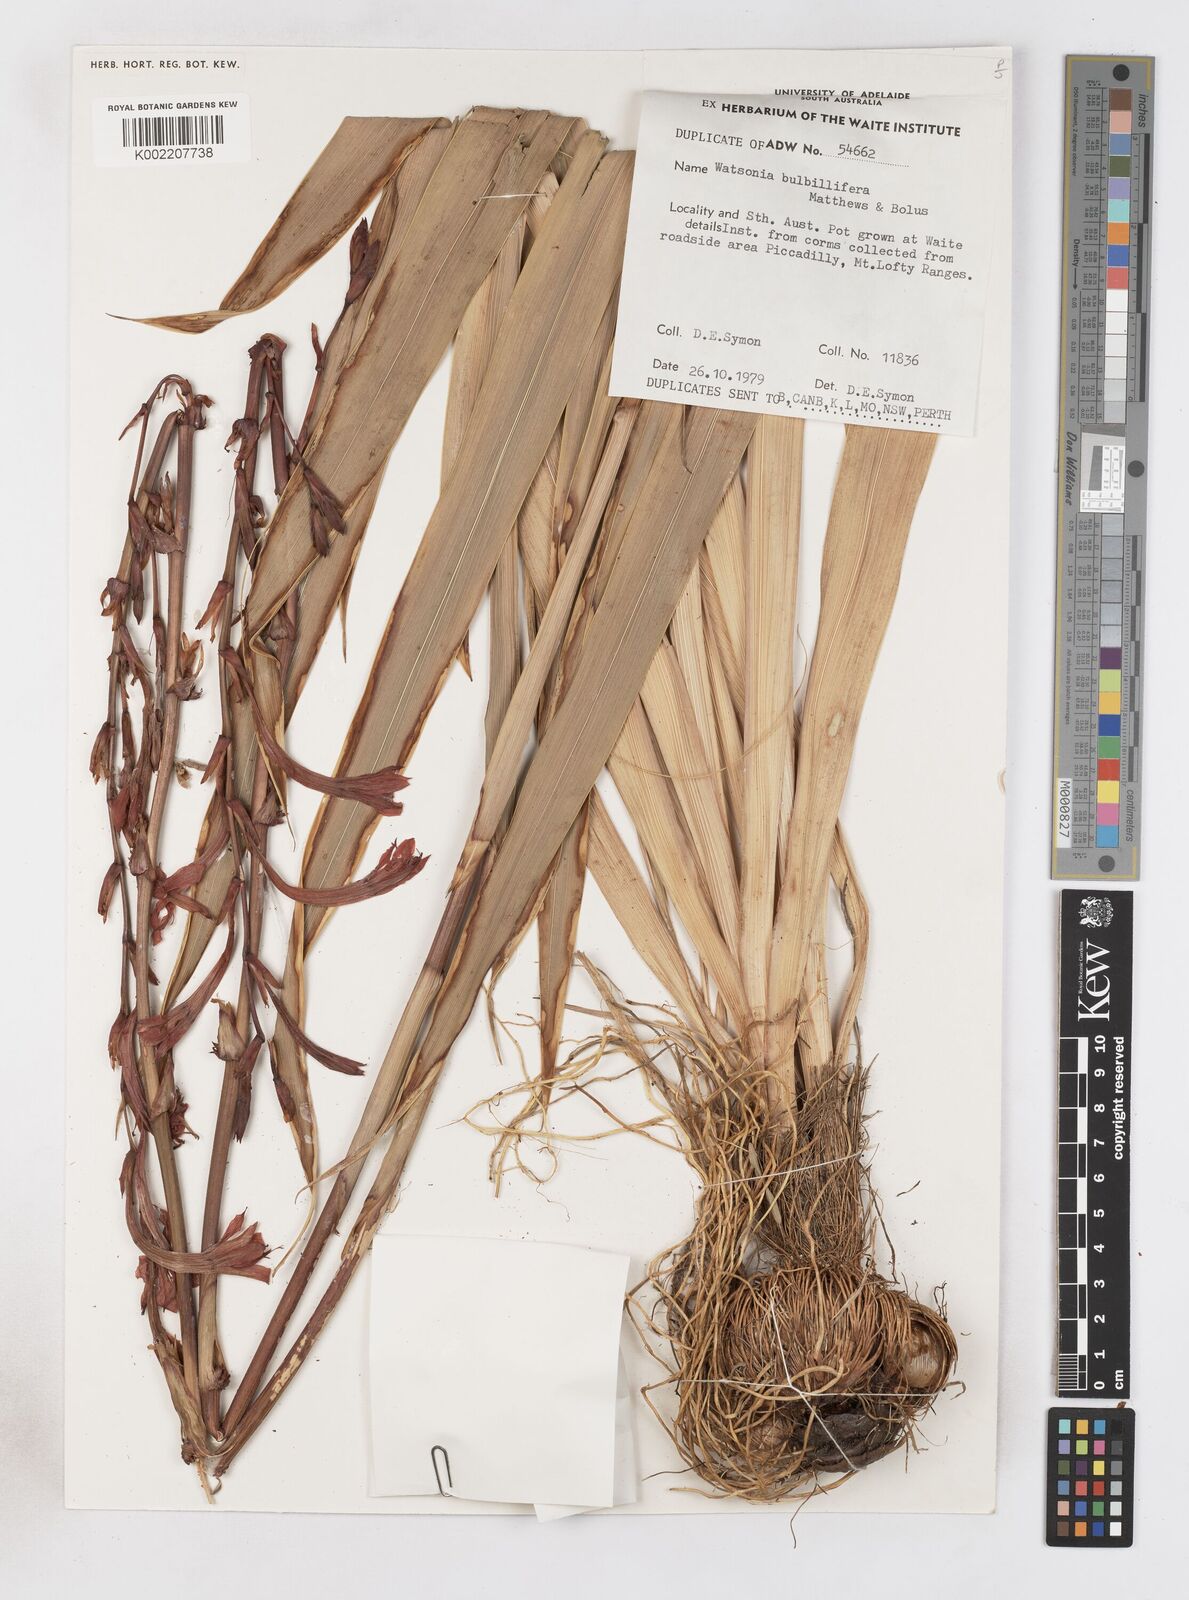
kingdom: Plantae
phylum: Tracheophyta
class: Liliopsida
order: Asparagales
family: Iridaceae
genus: Watsonia
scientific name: Watsonia meriana
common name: Bulbil bugle-lily
